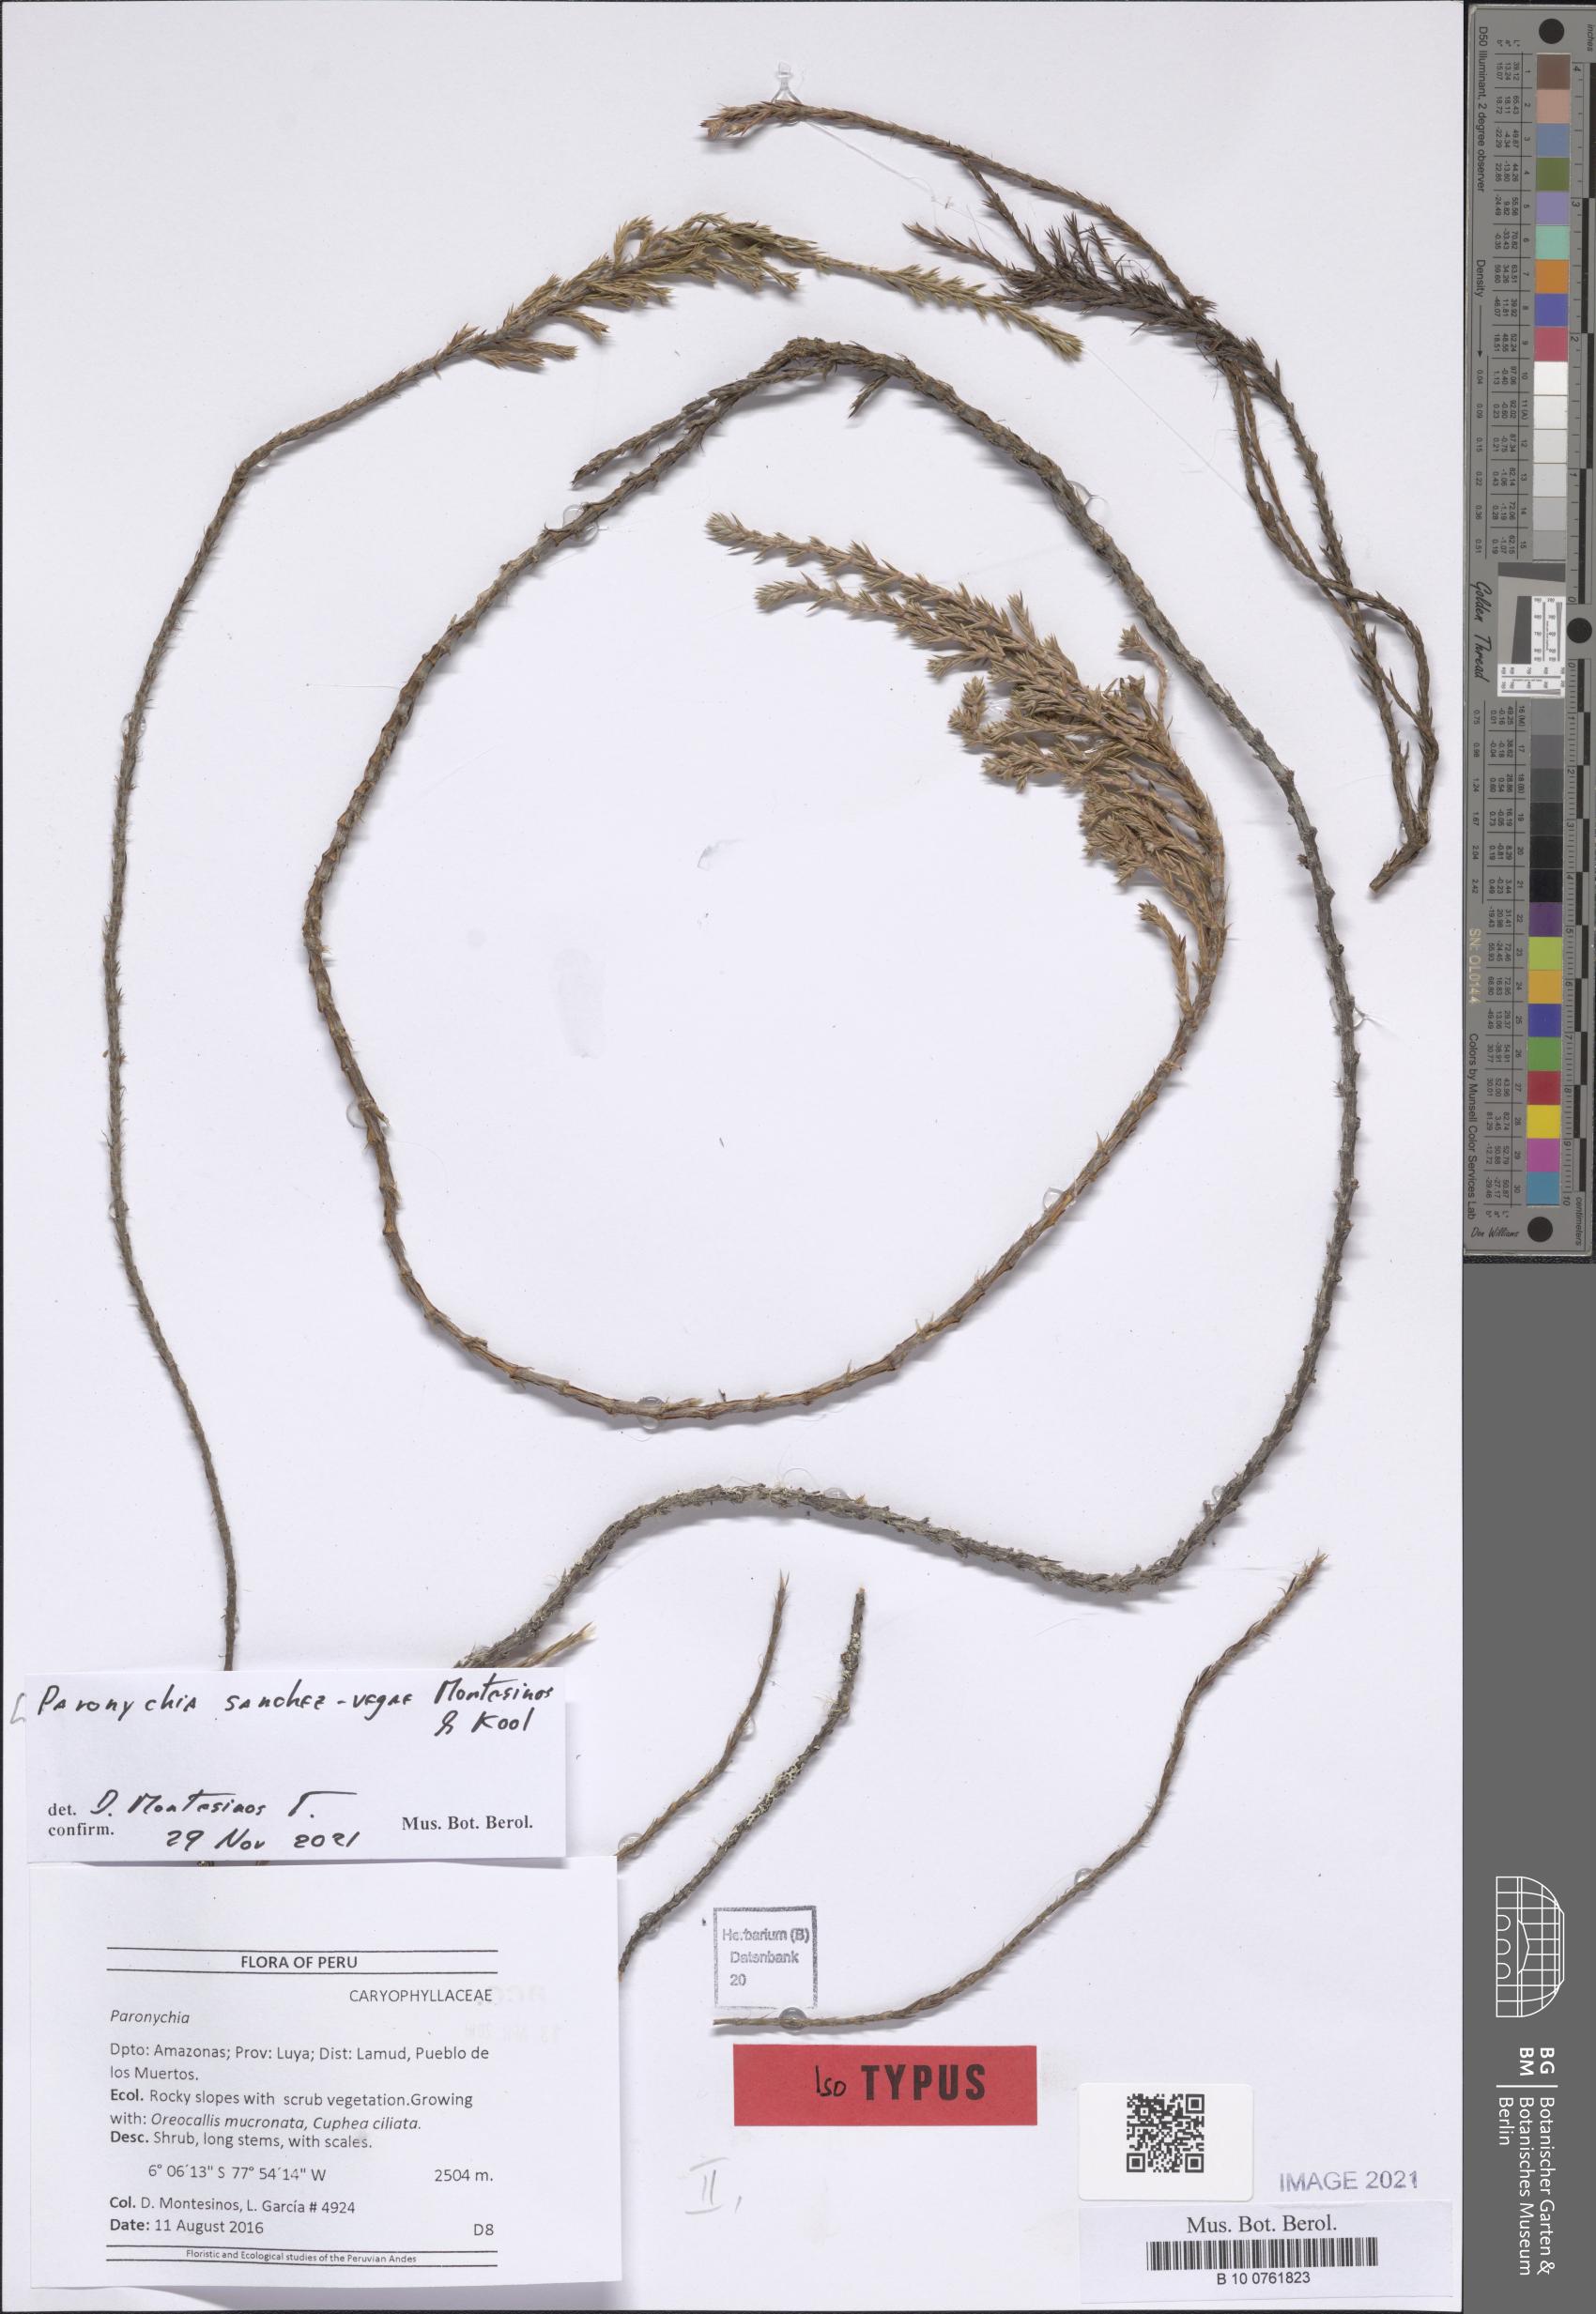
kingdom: Plantae
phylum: Tracheophyta
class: Magnoliopsida
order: Caryophyllales
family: Caryophyllaceae
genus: Paronychia
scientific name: Paronychia sanchez-vegae
